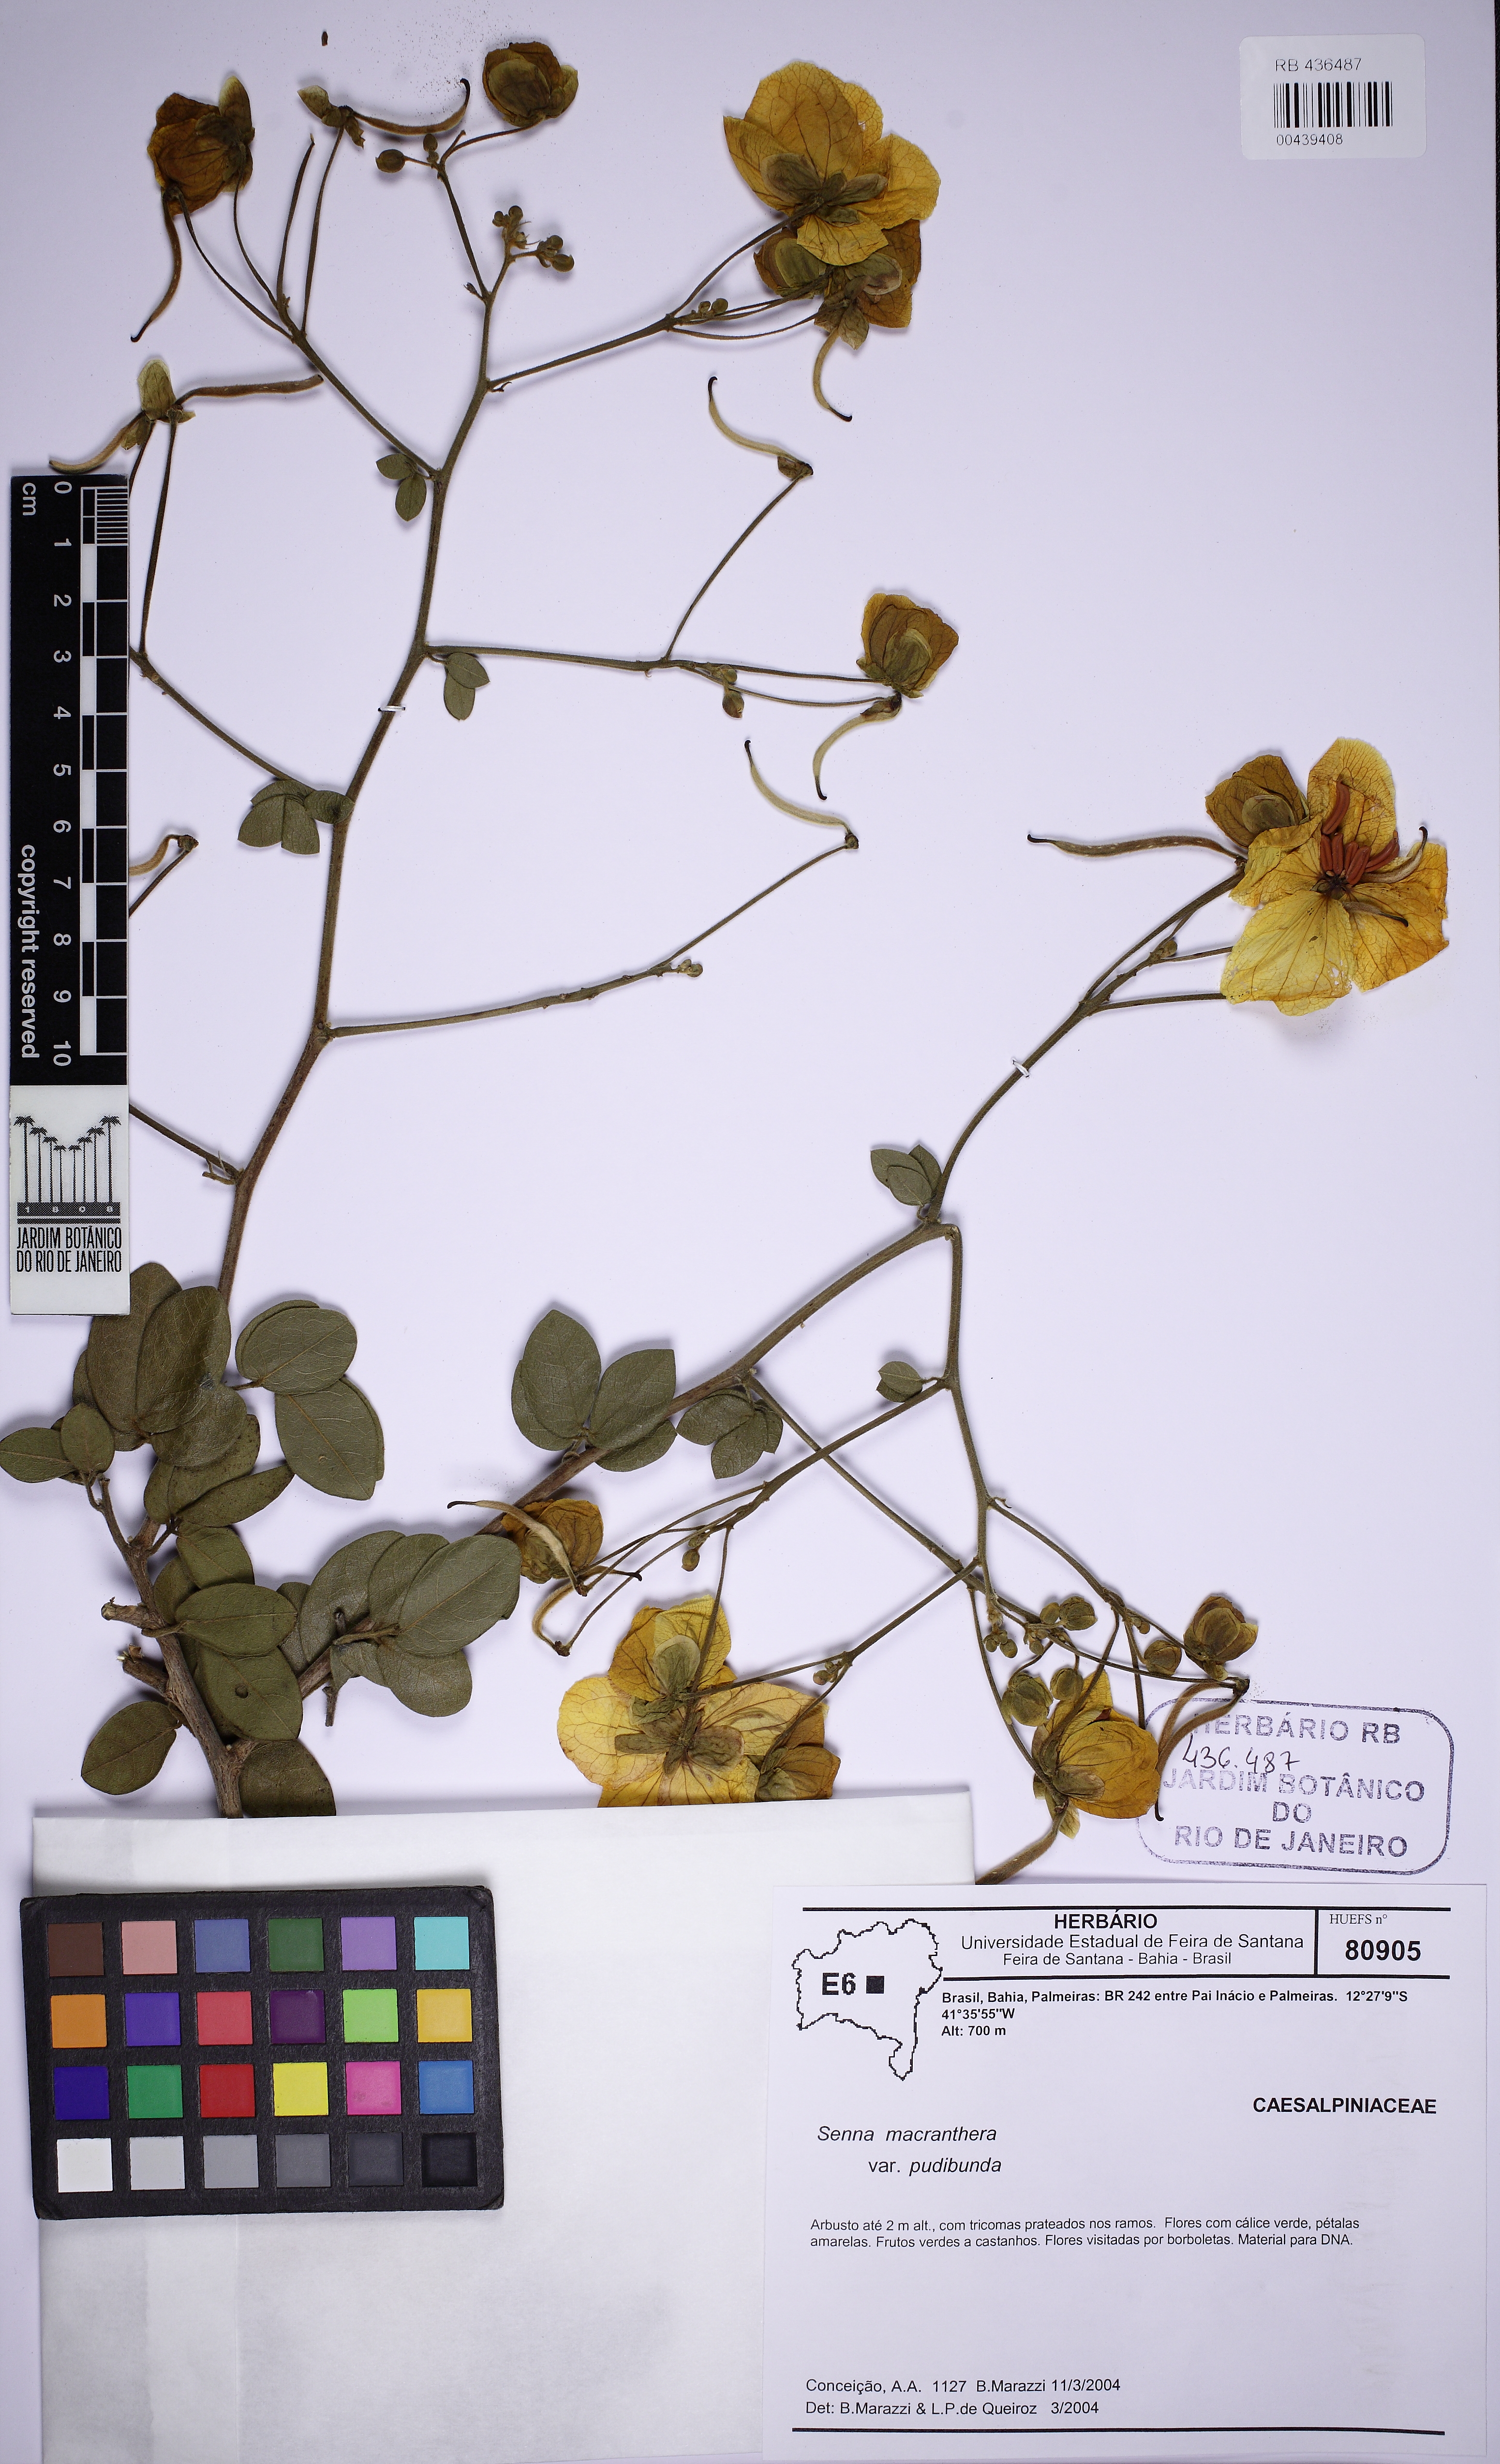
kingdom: Plantae
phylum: Tracheophyta
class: Magnoliopsida
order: Fabales
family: Fabaceae
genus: Senna
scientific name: Senna macranthera
